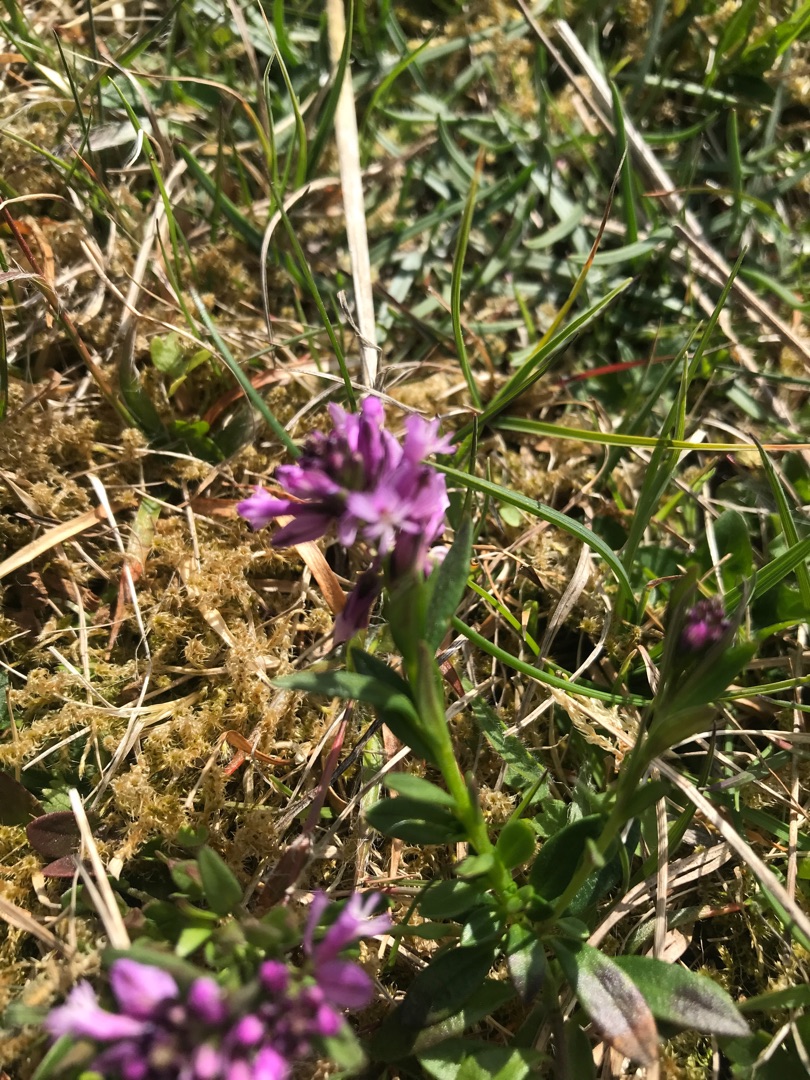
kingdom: Plantae
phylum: Tracheophyta
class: Magnoliopsida
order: Fabales
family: Polygalaceae
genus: Polygala
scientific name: Polygala vulgaris
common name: Almindelig mælkeurt
